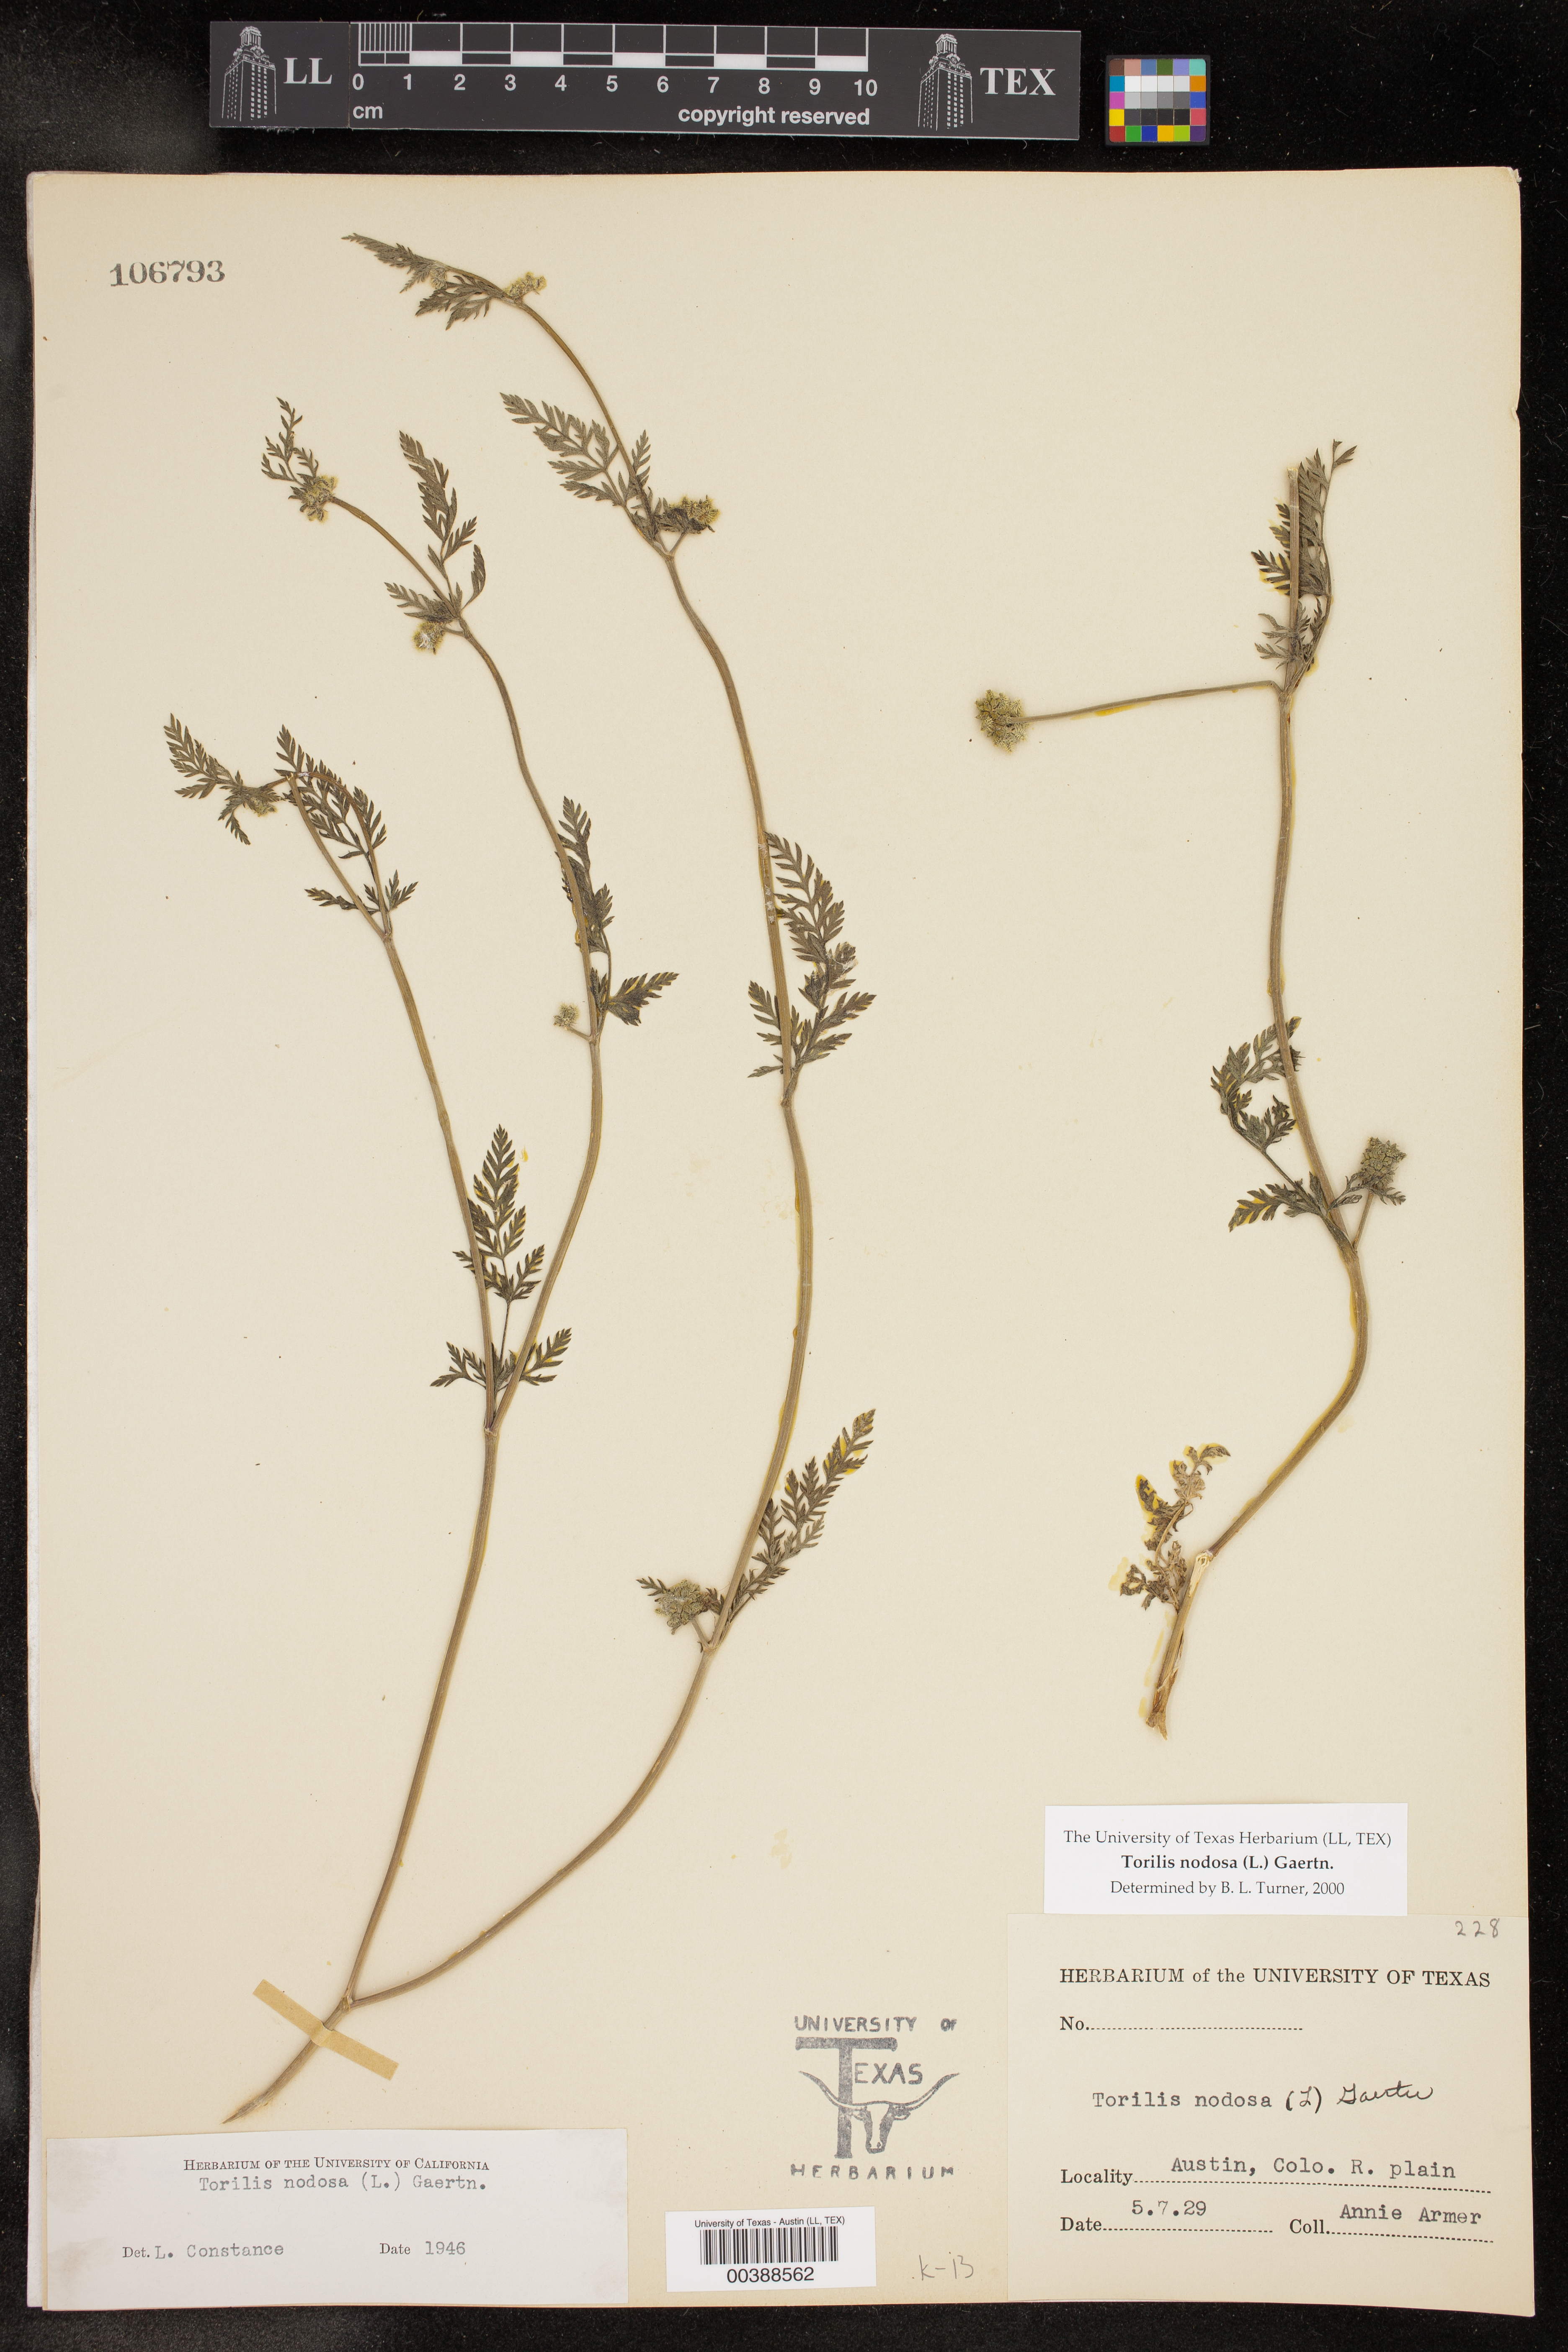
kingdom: Plantae
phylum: Tracheophyta
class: Magnoliopsida
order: Apiales
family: Apiaceae
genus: Torilis
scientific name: Torilis nodosa
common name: Knotted hedge-parsley
